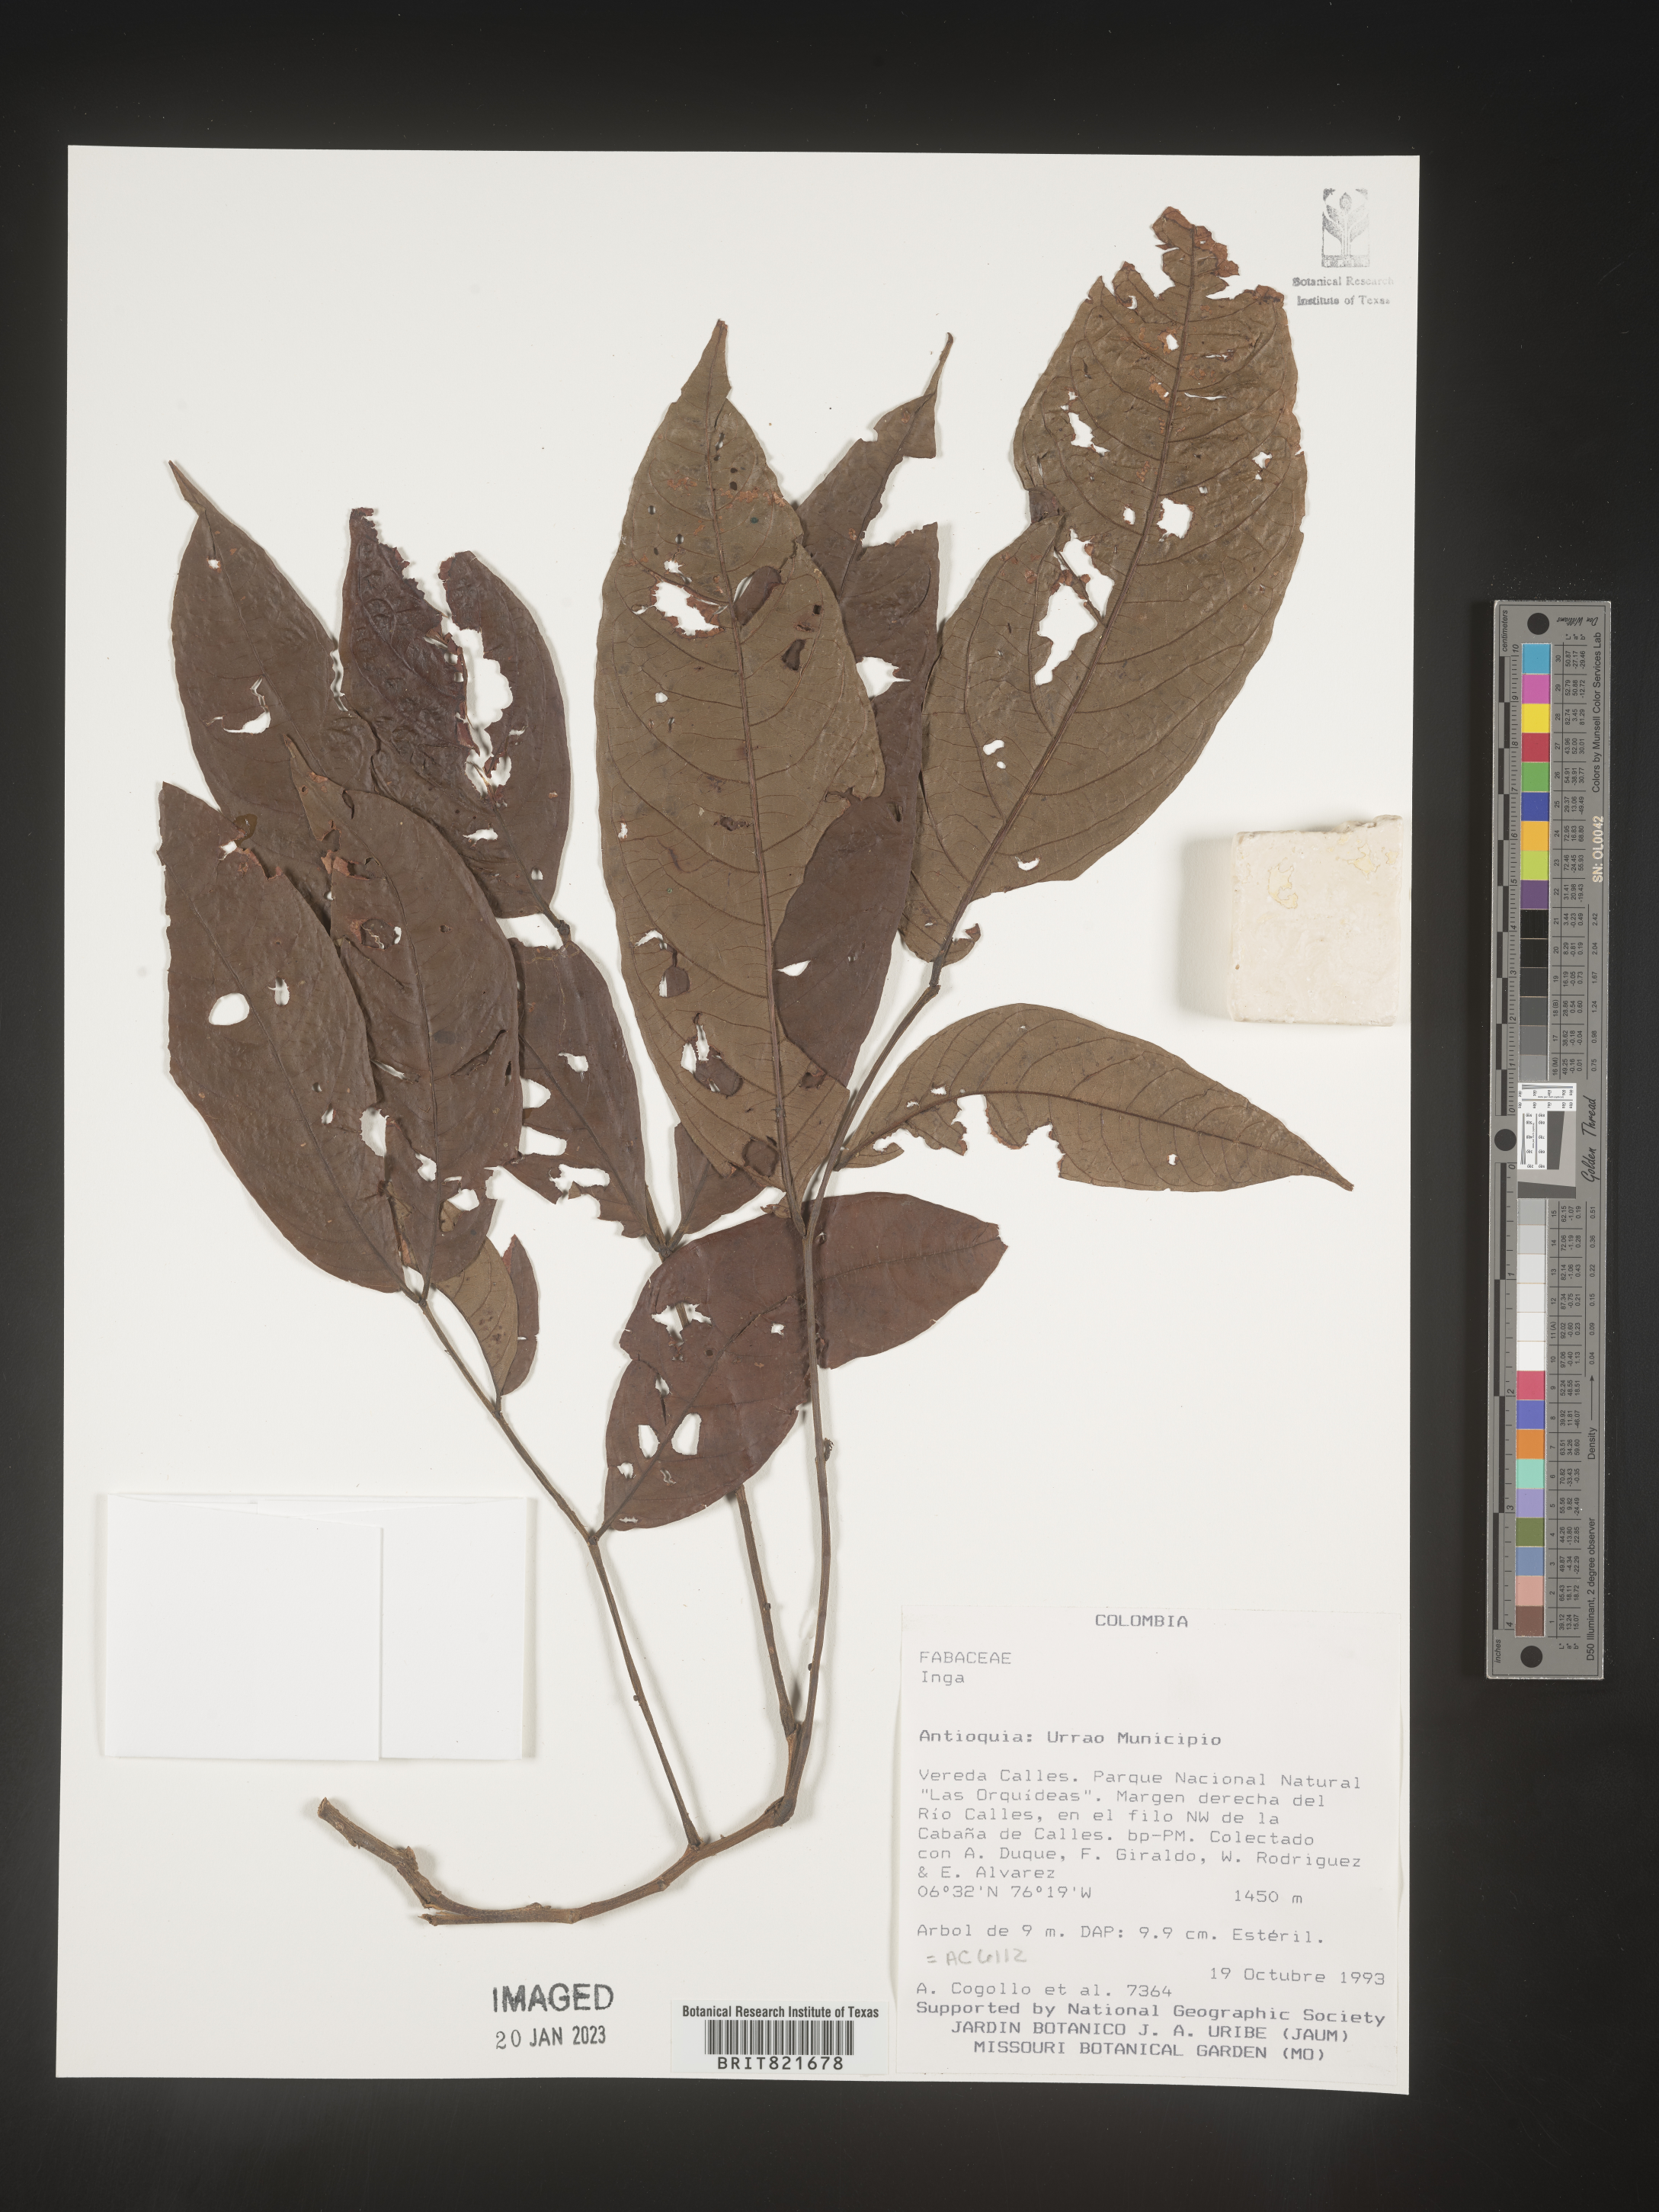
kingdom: Plantae
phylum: Tracheophyta
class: Magnoliopsida
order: Fabales
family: Fabaceae
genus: Inga
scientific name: Inga
